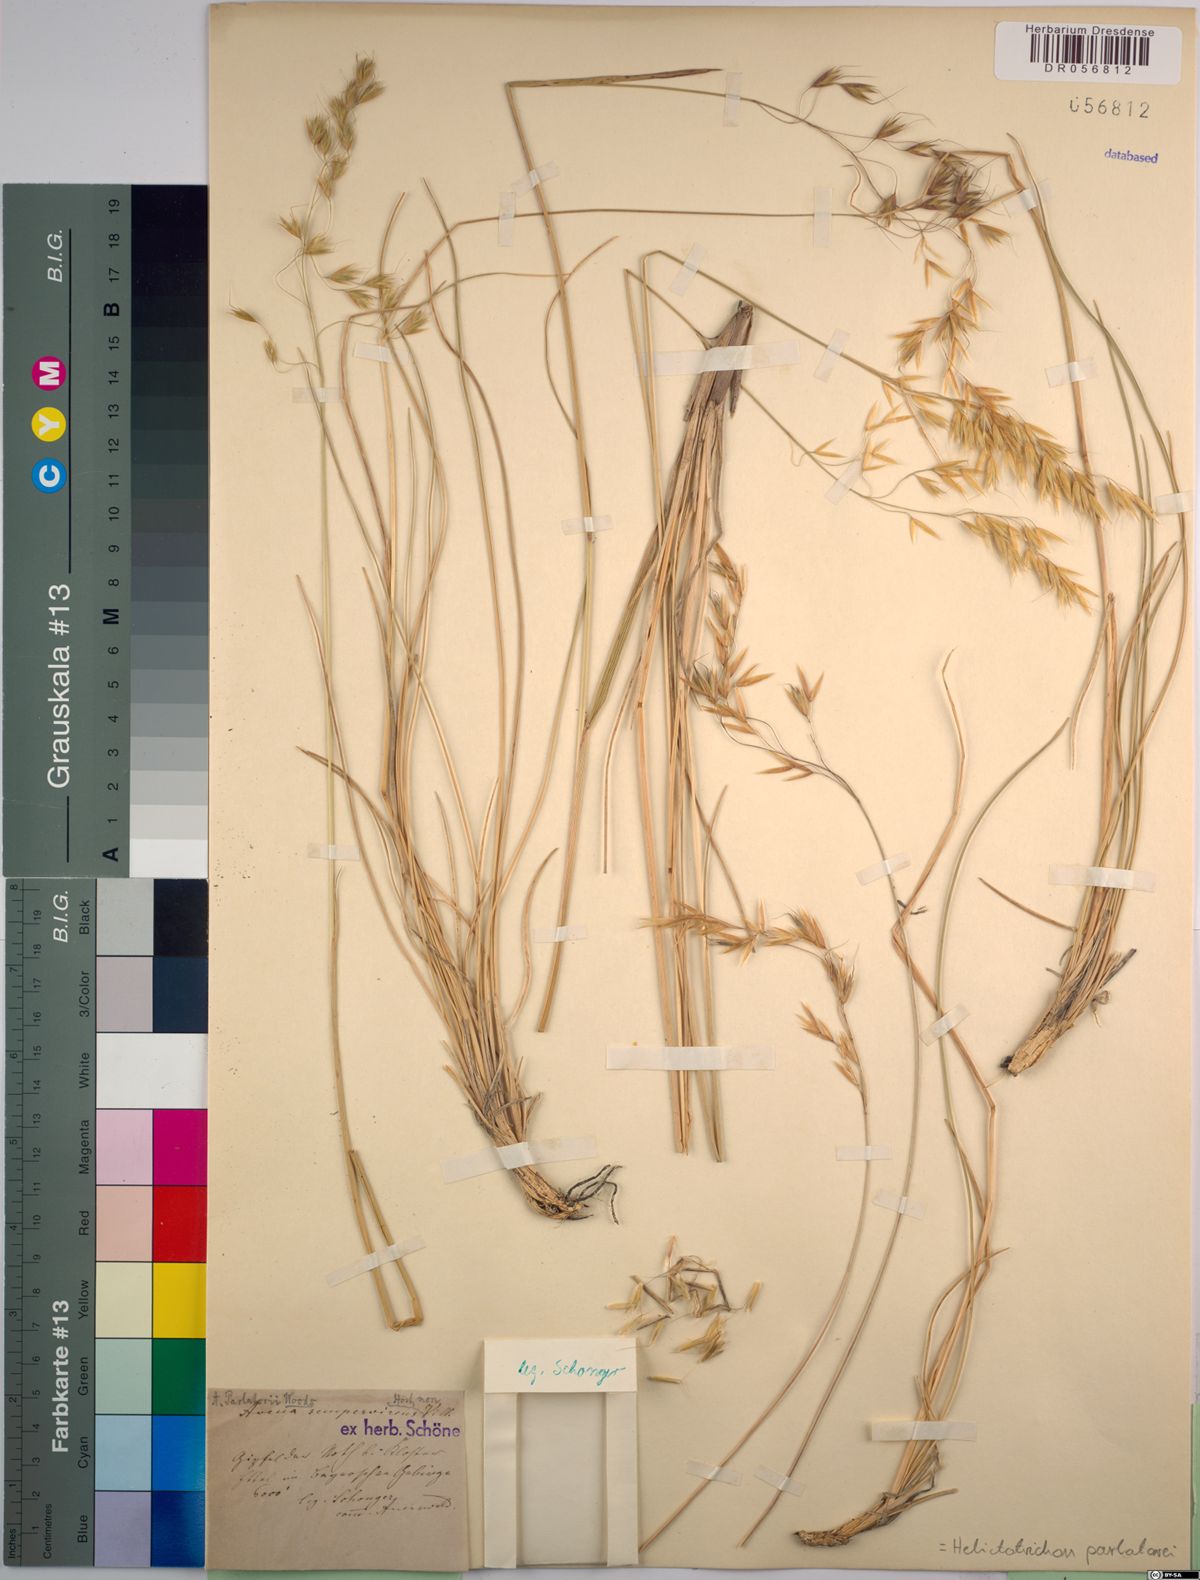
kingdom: Plantae
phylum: Tracheophyta
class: Liliopsida
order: Poales
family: Poaceae
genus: Helictotrichon
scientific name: Helictotrichon parlatorei
